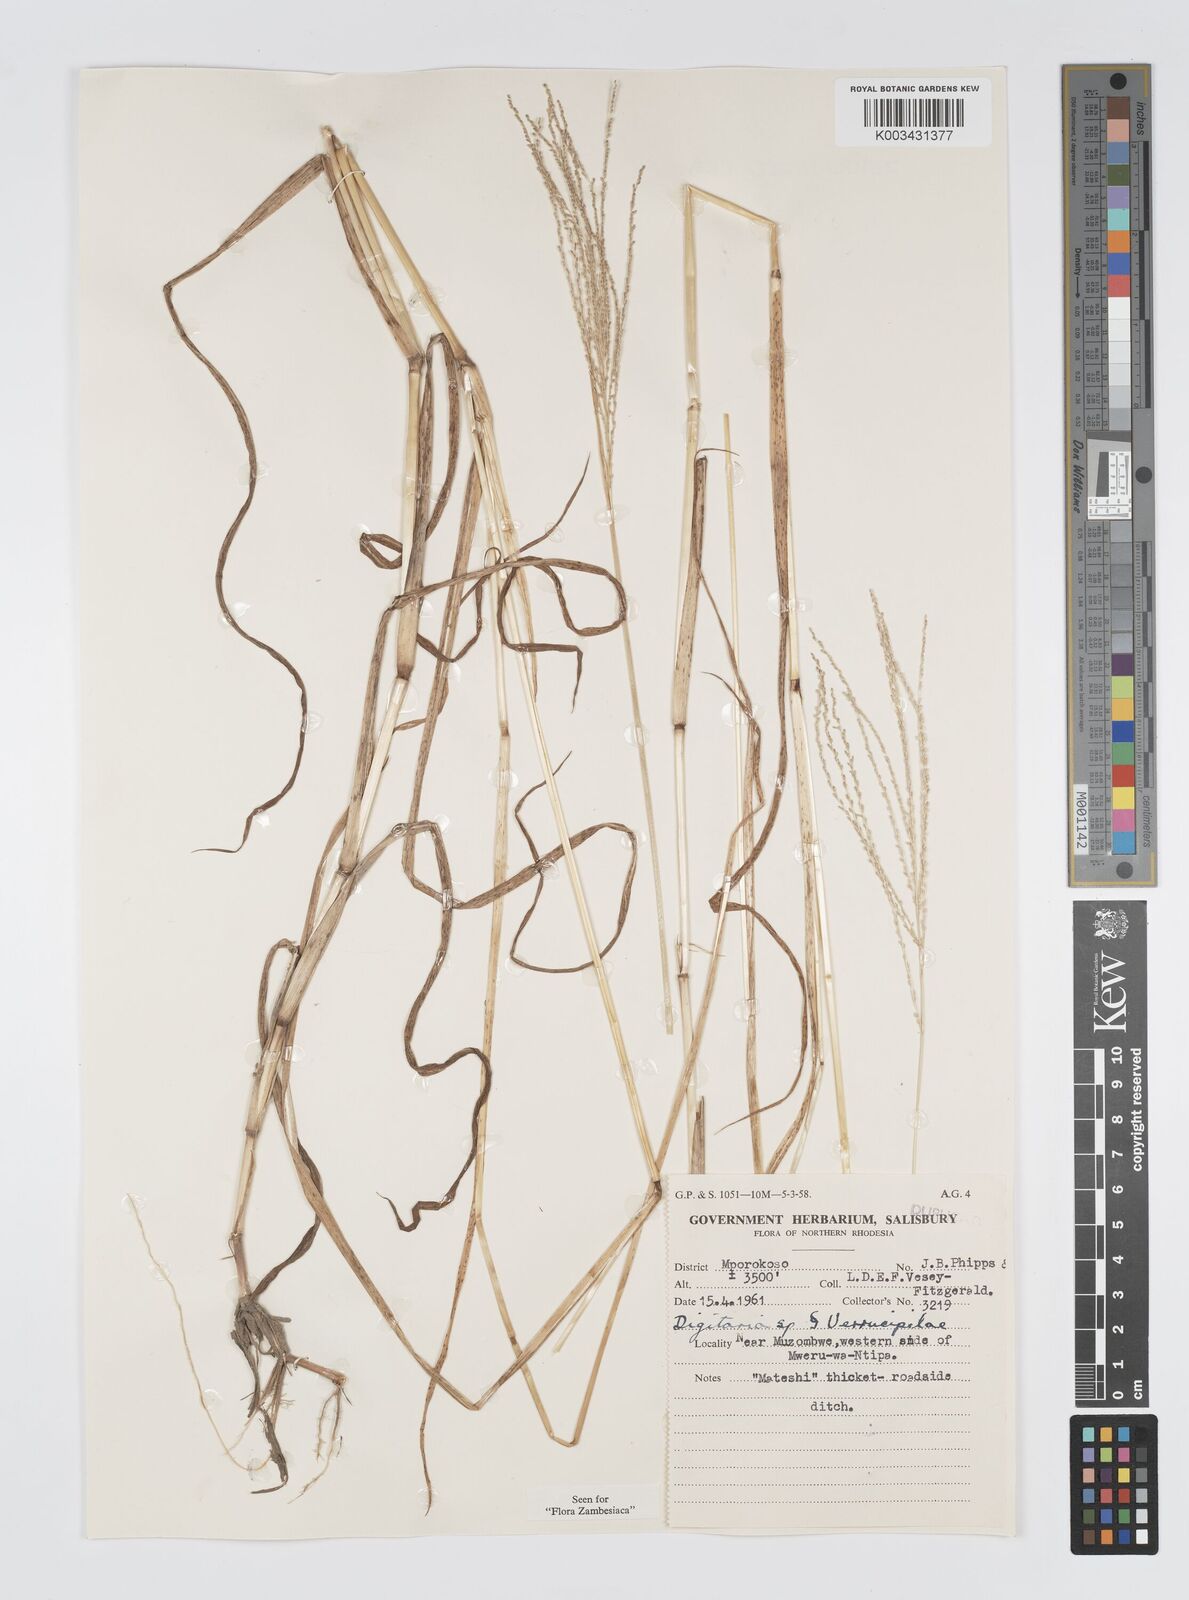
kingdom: Plantae
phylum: Tracheophyta
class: Liliopsida
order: Poales
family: Poaceae
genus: Digitaria
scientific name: Digitaria leptorhachis
